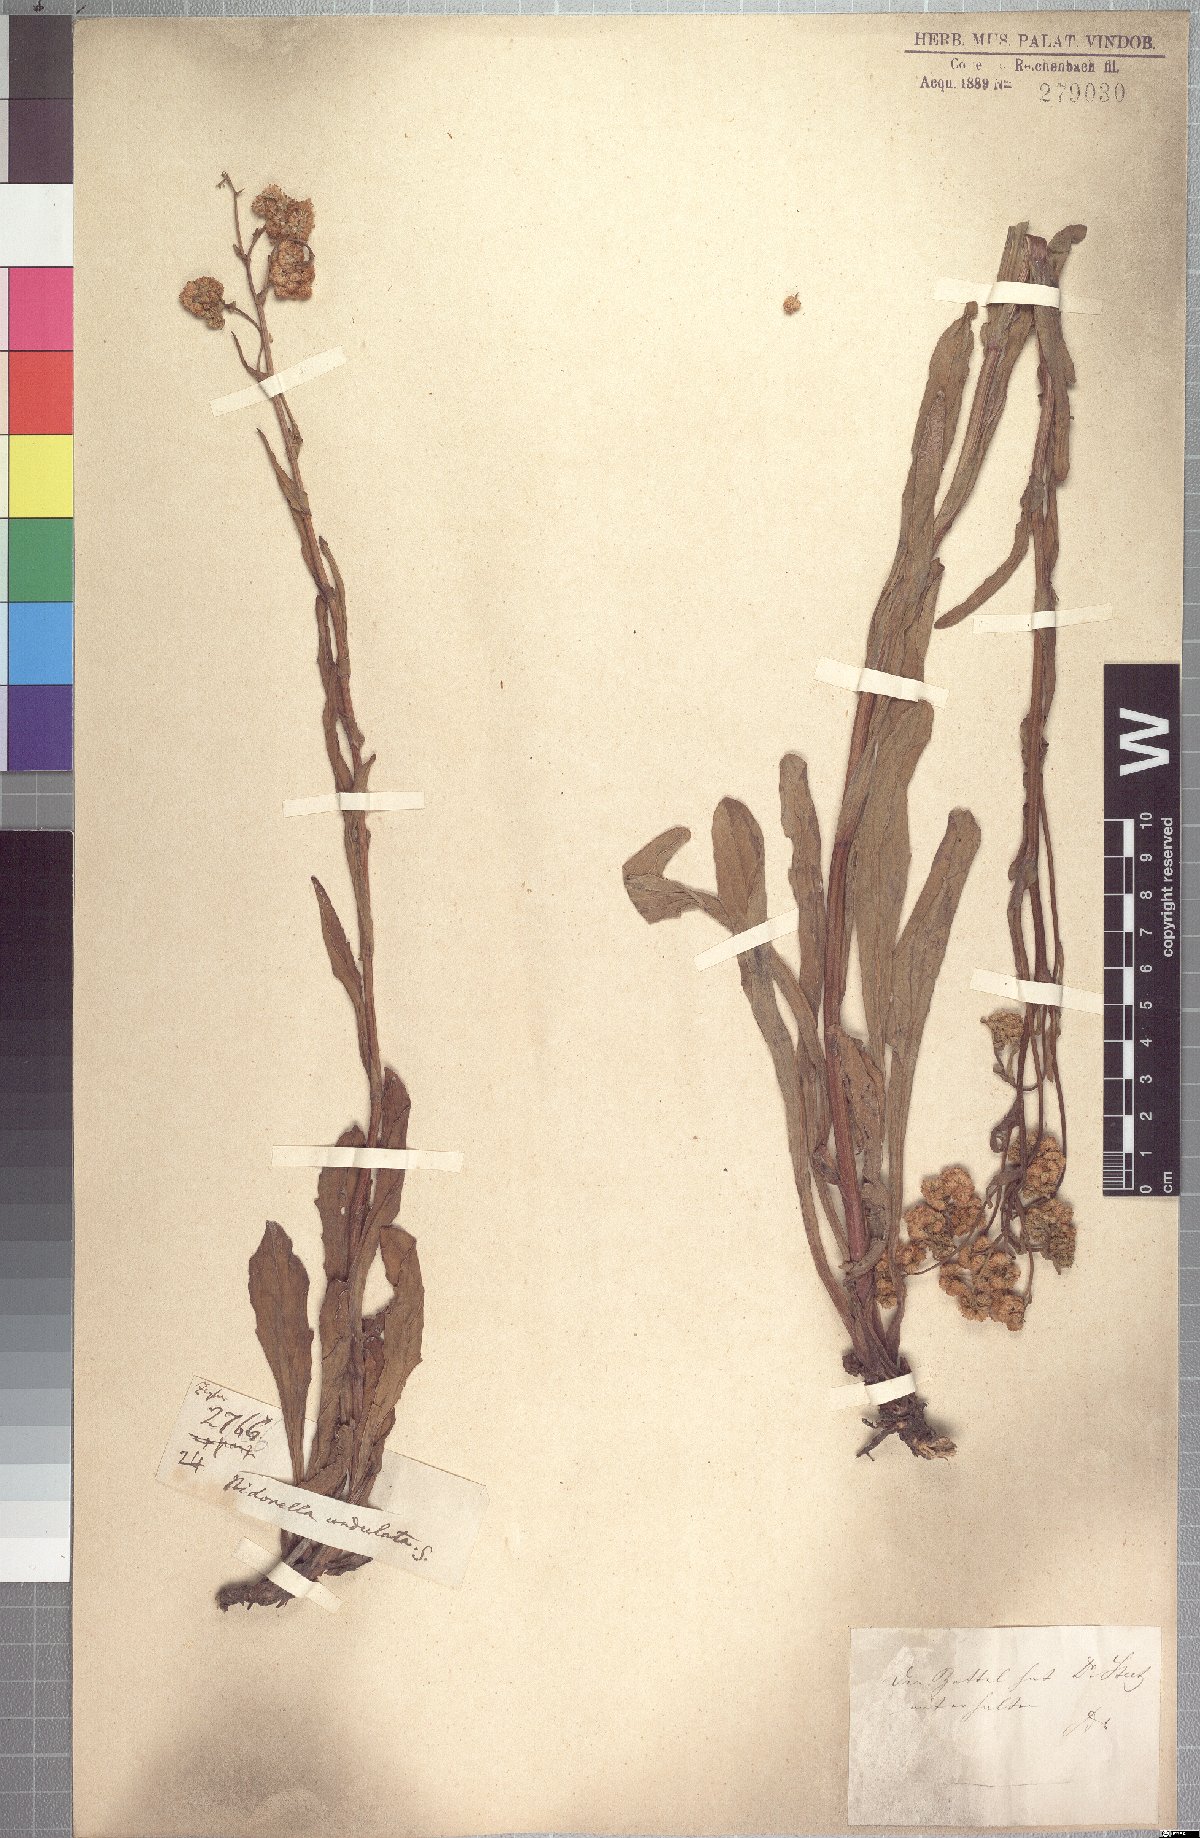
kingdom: Plantae
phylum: Tracheophyta
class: Magnoliopsida
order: Asterales
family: Asteraceae
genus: Nidorella
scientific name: Nidorella undulata
